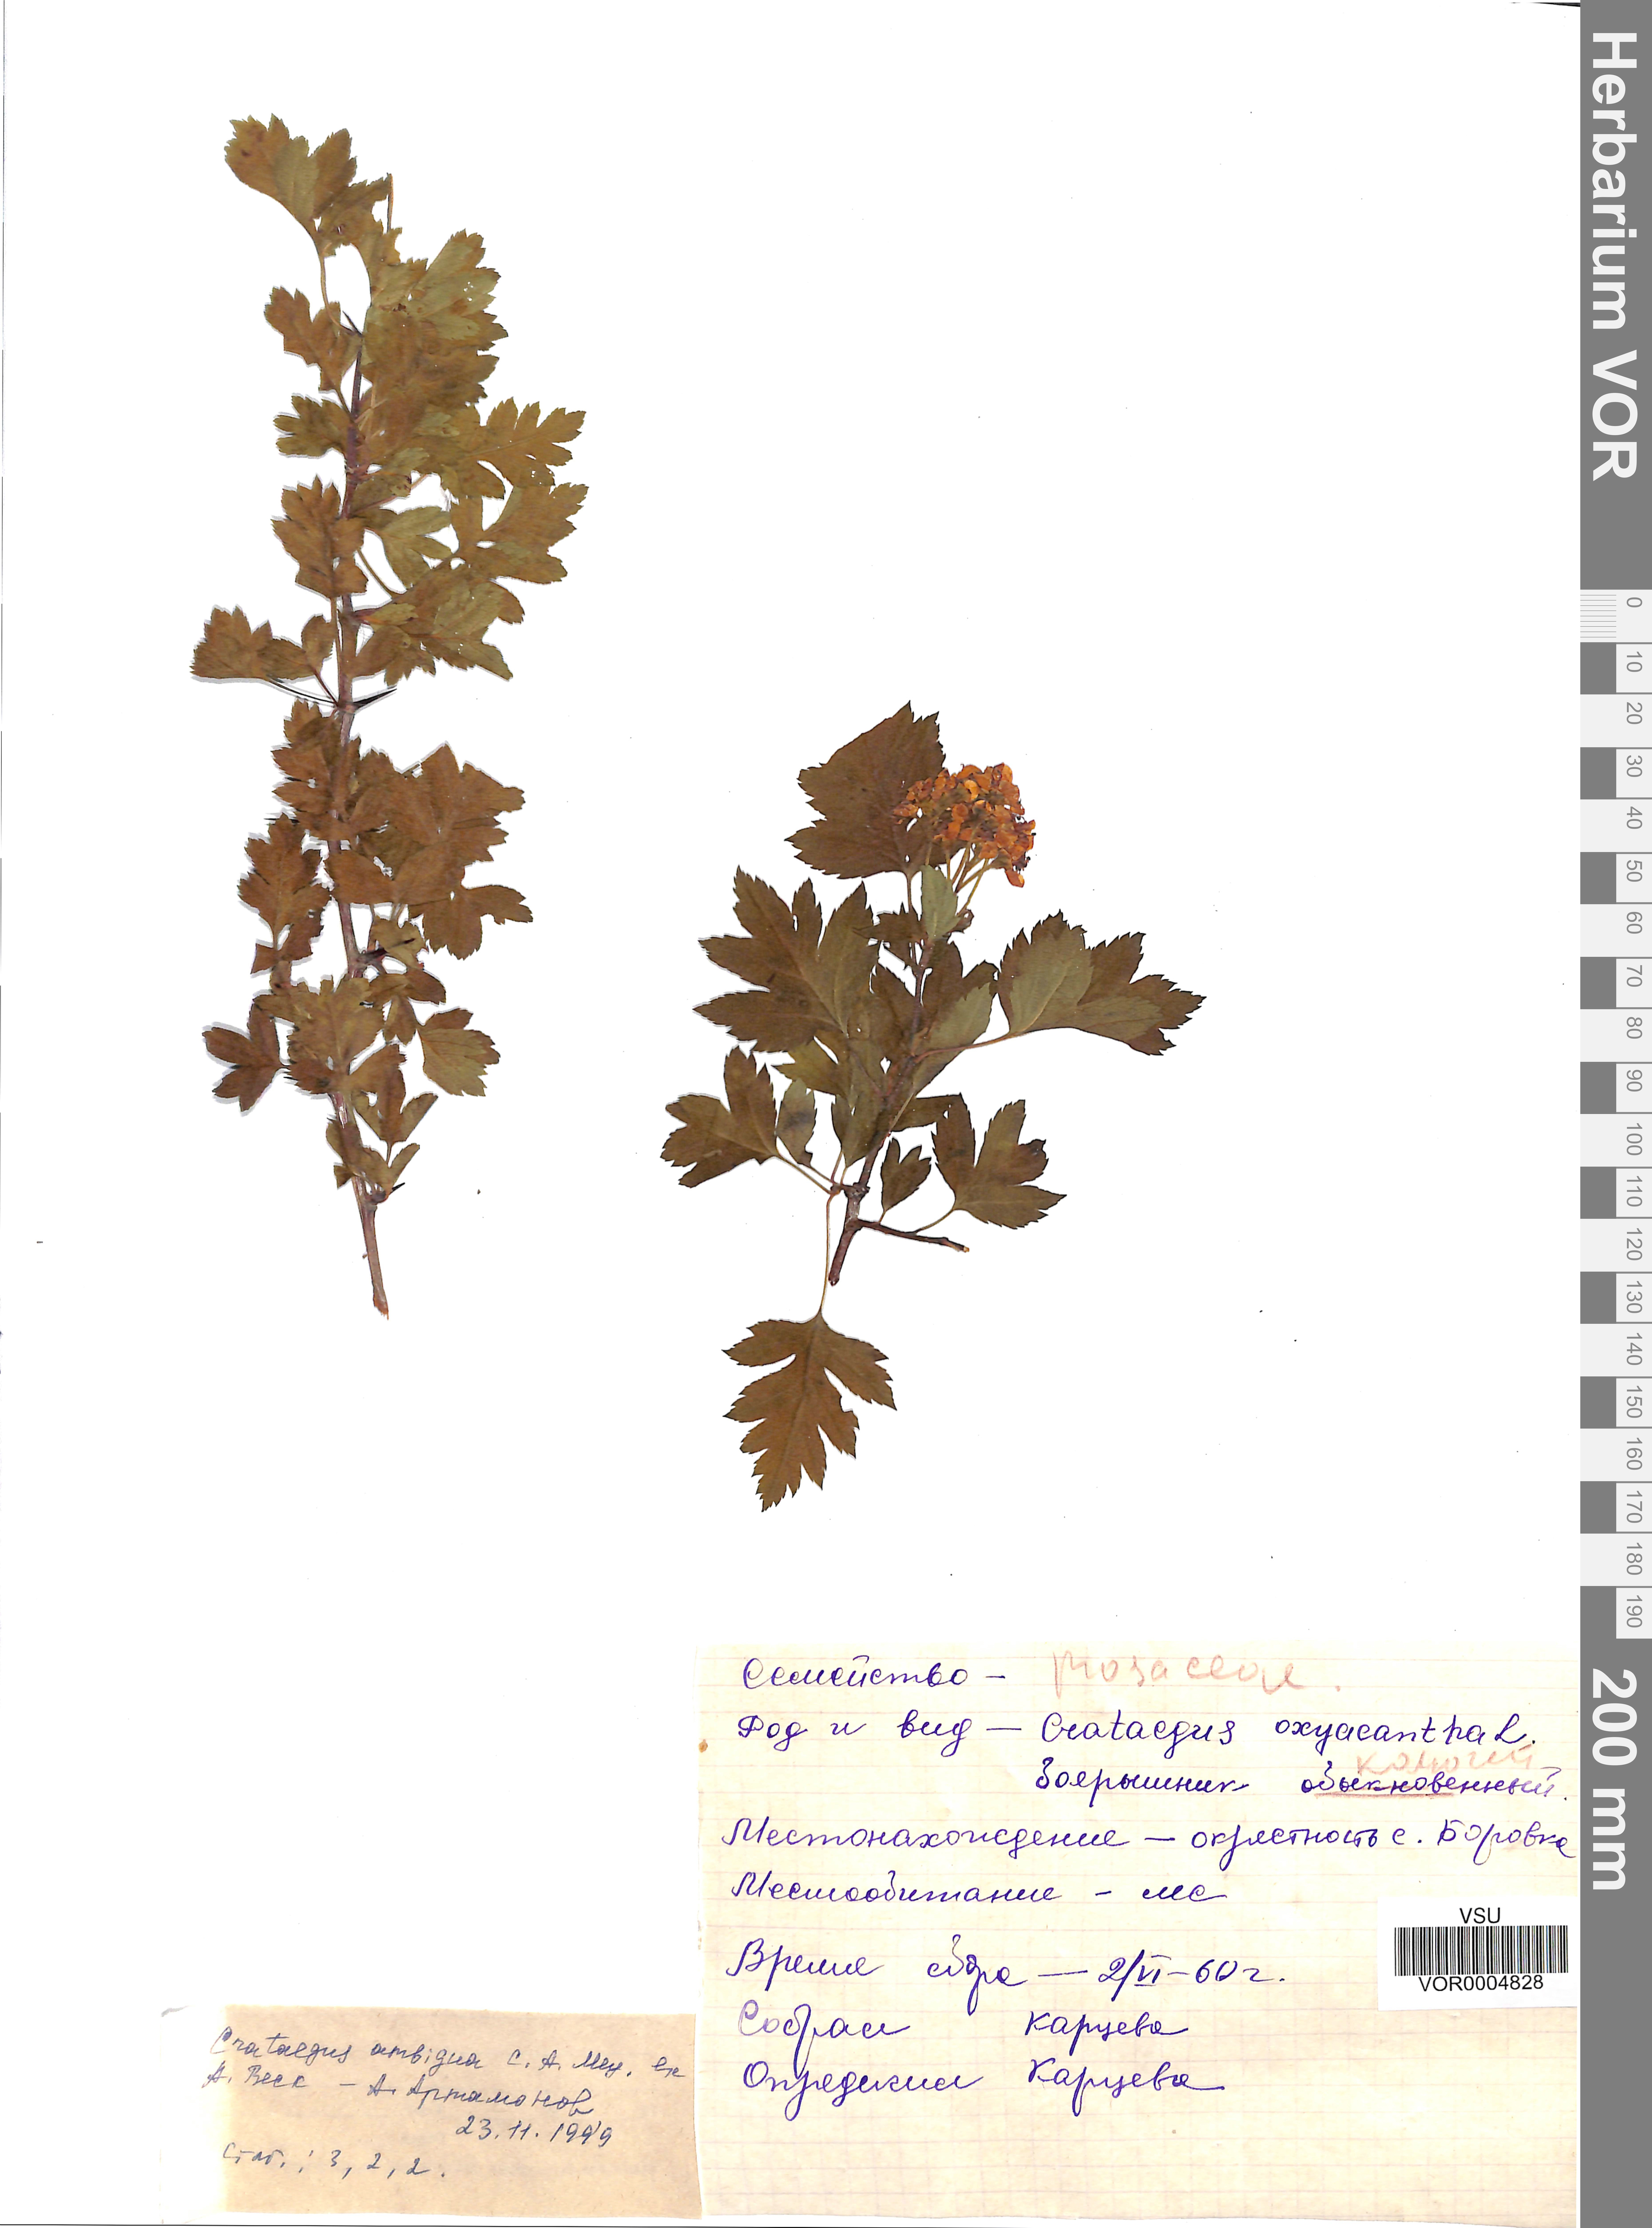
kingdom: Plantae
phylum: Tracheophyta
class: Magnoliopsida
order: Rosales
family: Rosaceae
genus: Crataegus
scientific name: Crataegus ambigua
